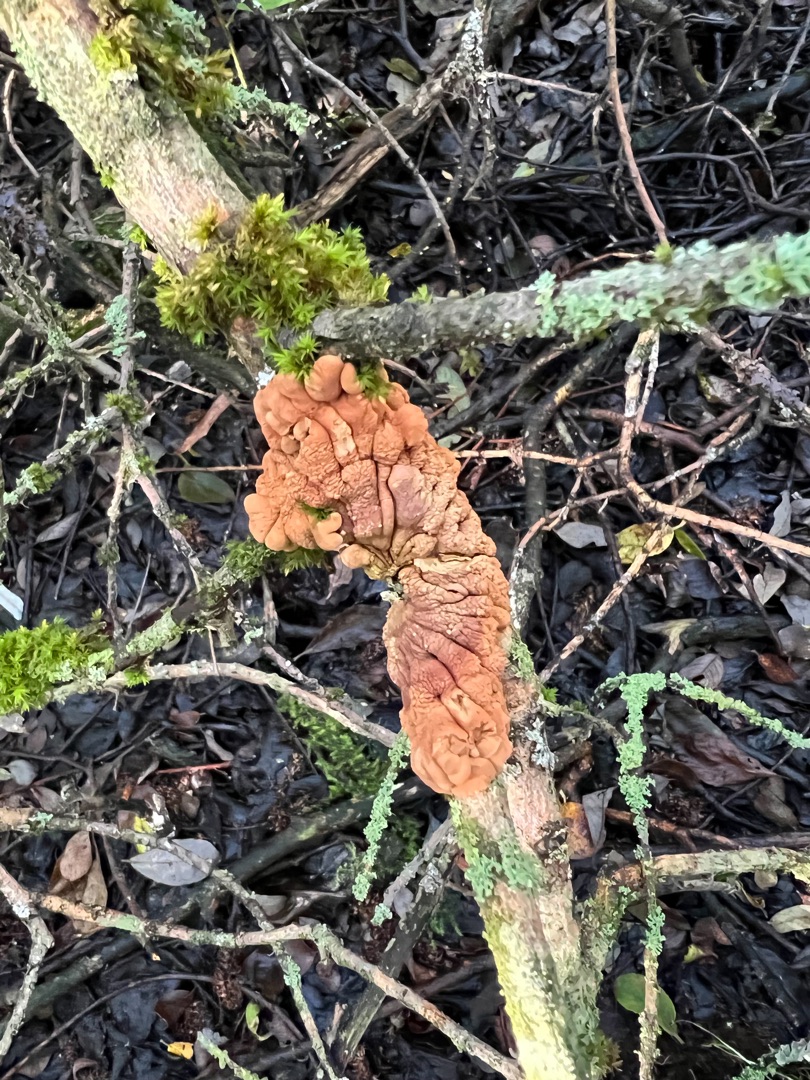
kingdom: Fungi
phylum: Ascomycota
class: Sordariomycetes
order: Hypocreales
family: Hypocreaceae
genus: Hypocreopsis
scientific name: Hypocreopsis lichenoides
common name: Pilfinger
